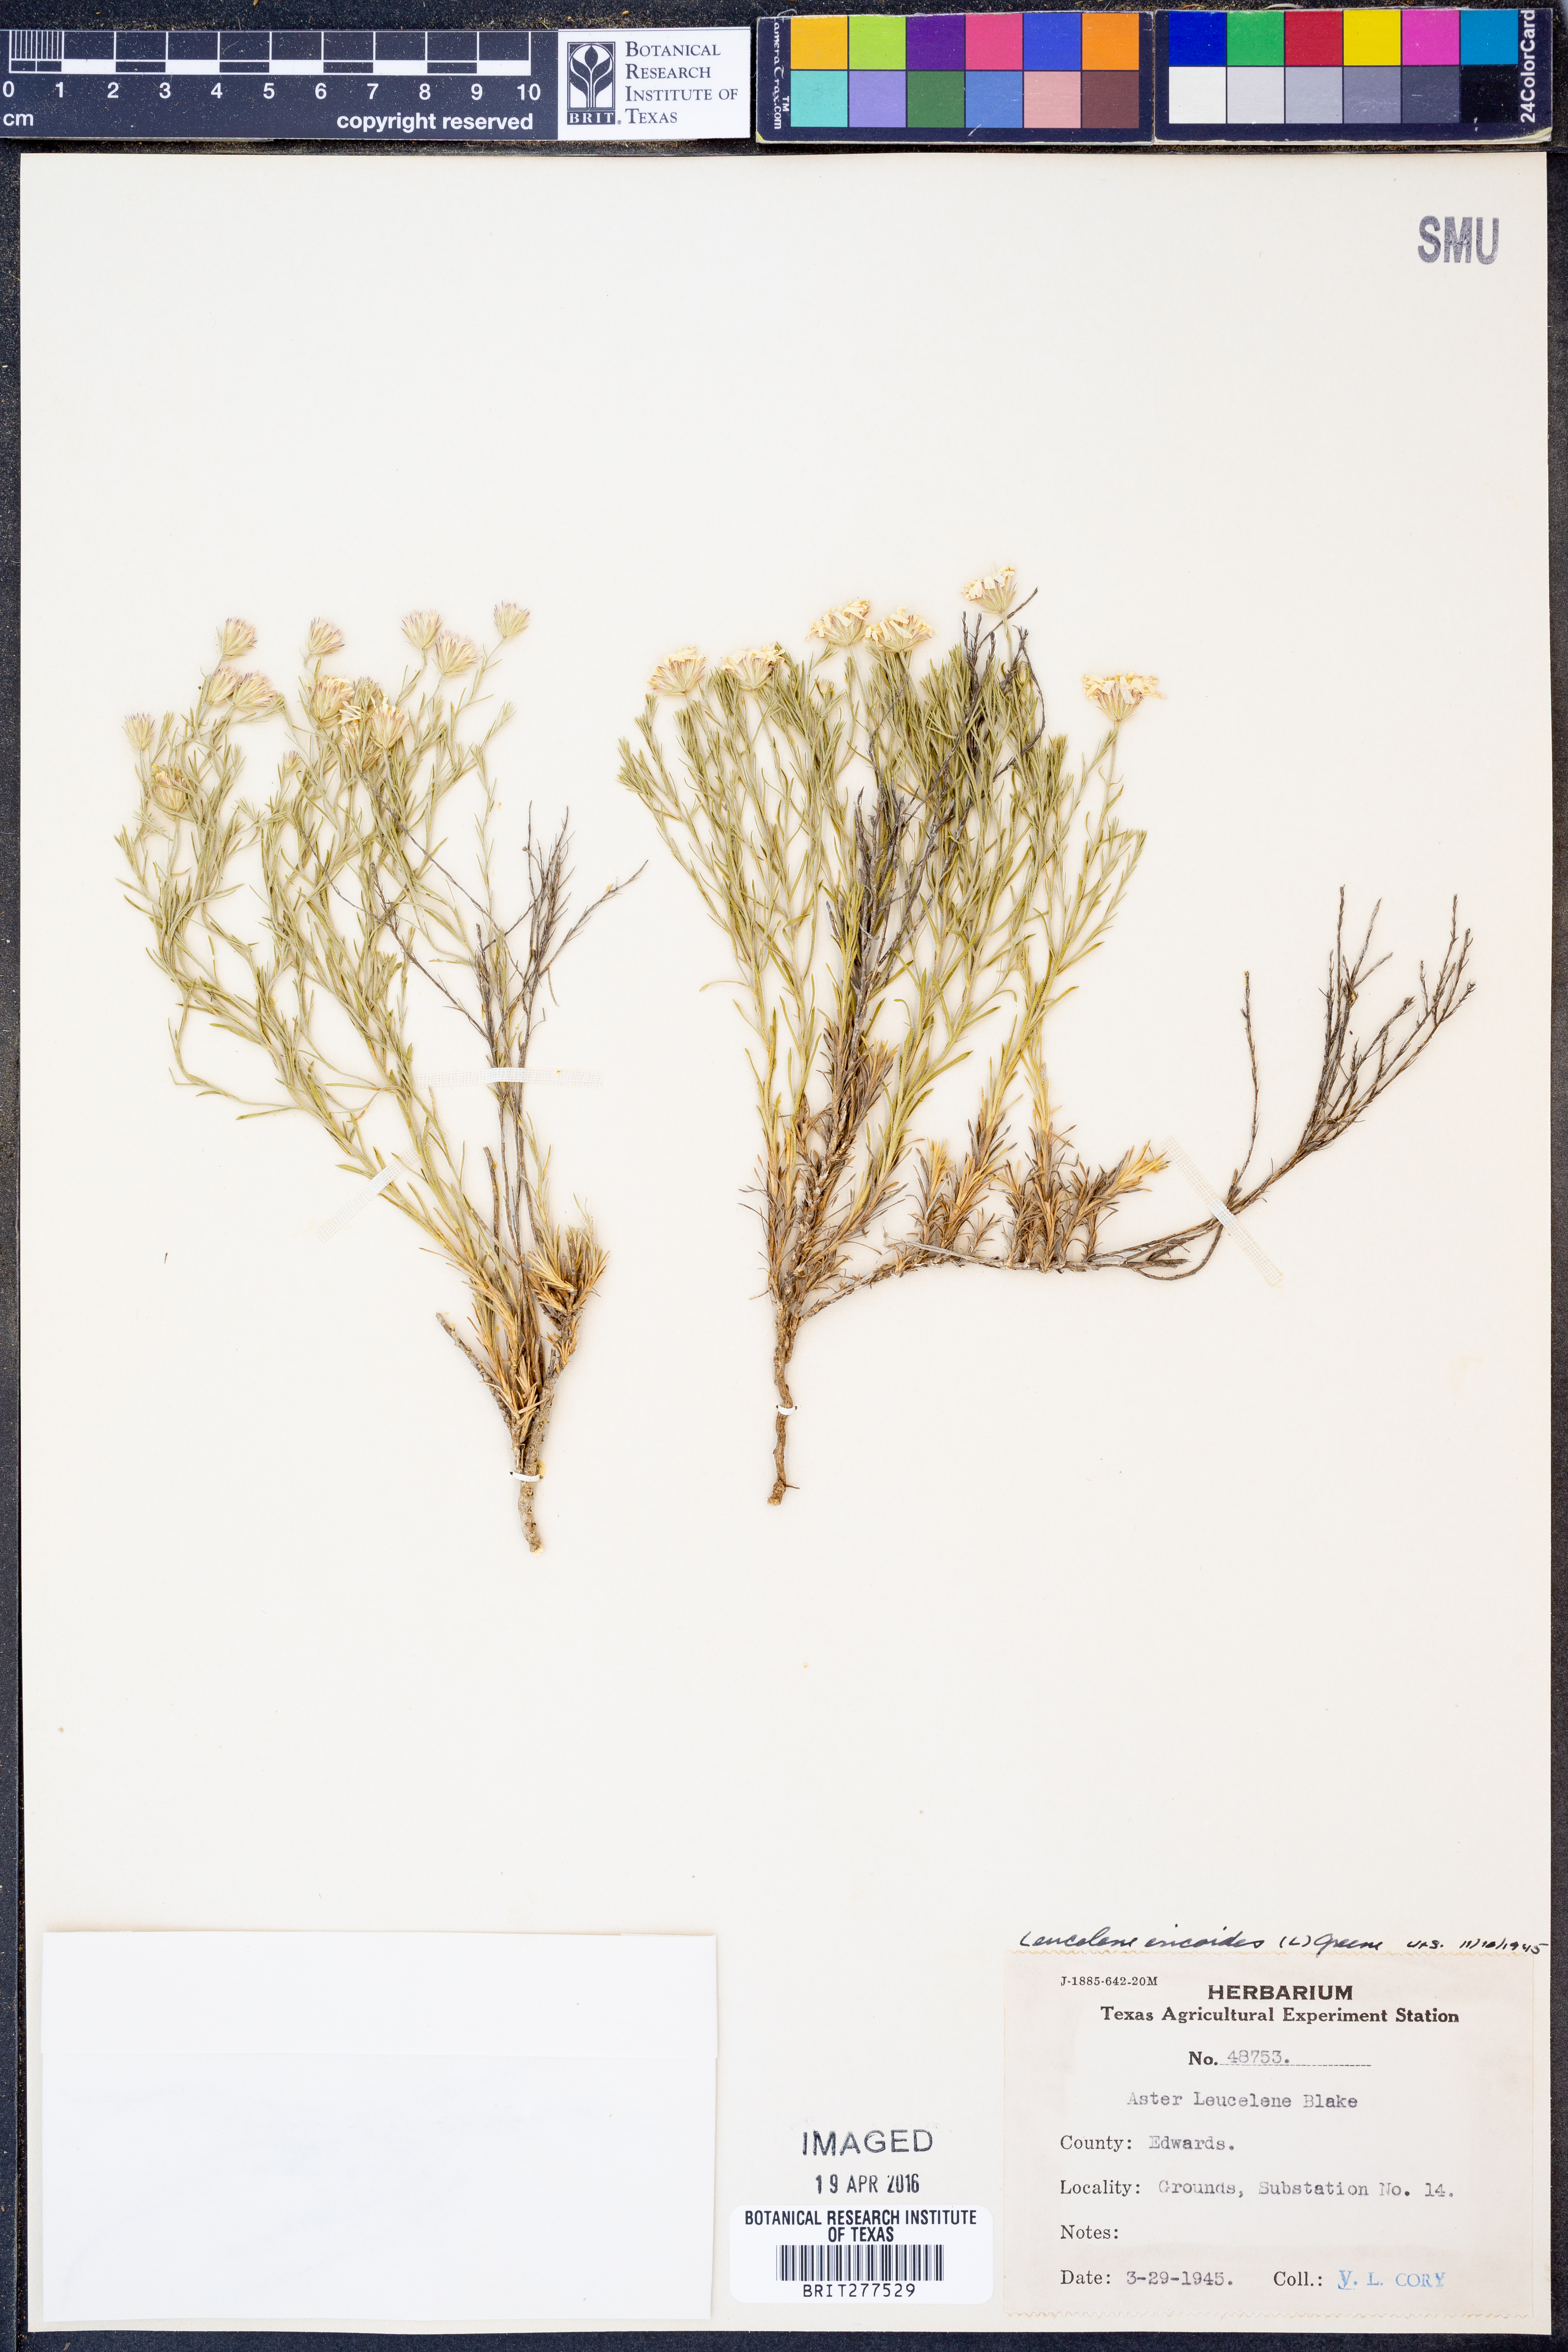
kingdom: Plantae
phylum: Tracheophyta
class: Magnoliopsida
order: Asterales
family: Asteraceae
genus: Chaetopappa
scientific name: Chaetopappa ericoides
